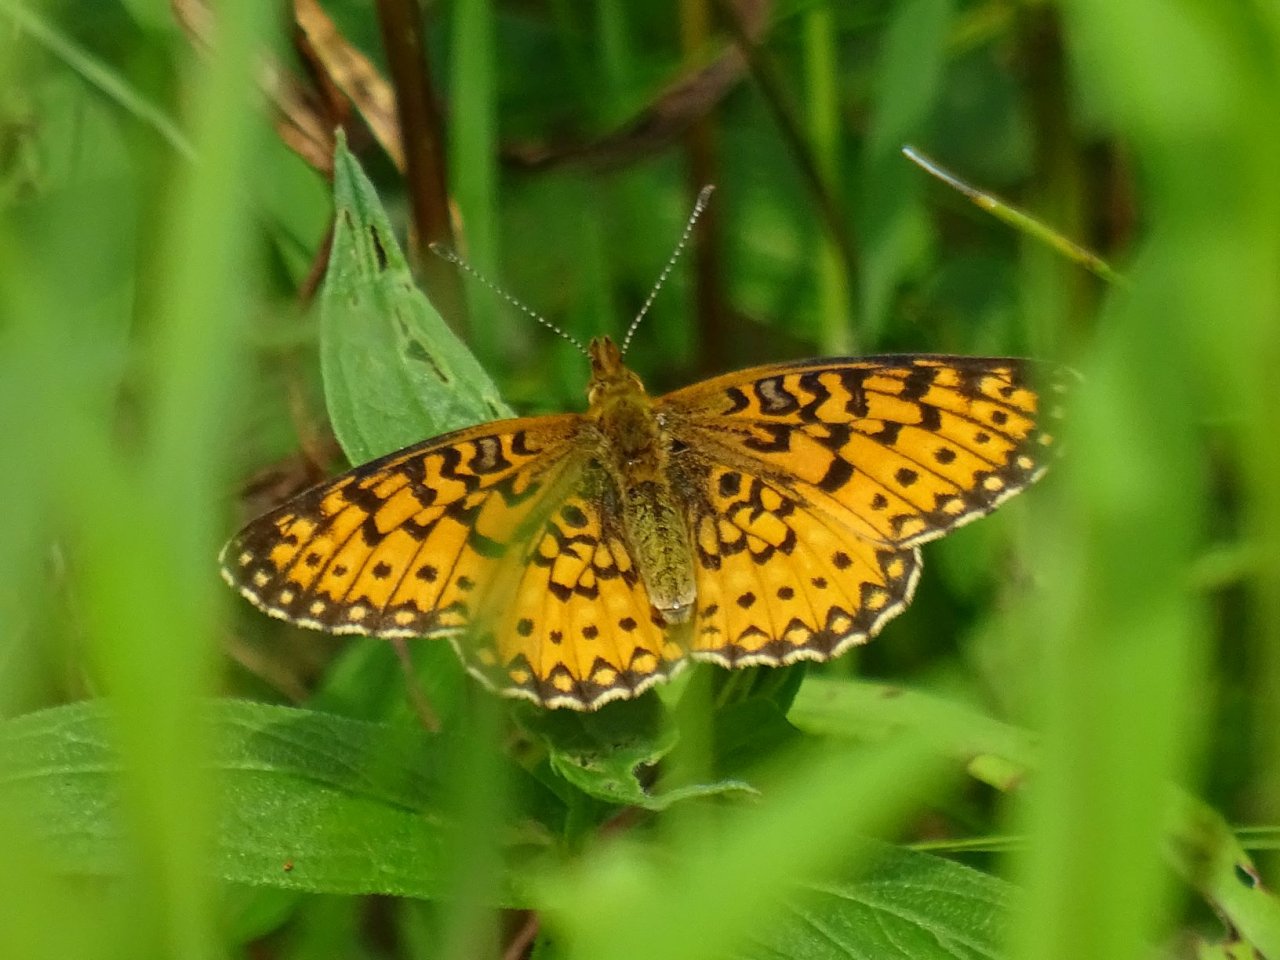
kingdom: Animalia
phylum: Arthropoda
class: Insecta
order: Lepidoptera
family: Nymphalidae
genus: Boloria
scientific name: Boloria selene
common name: Silver-bordered Fritillary
